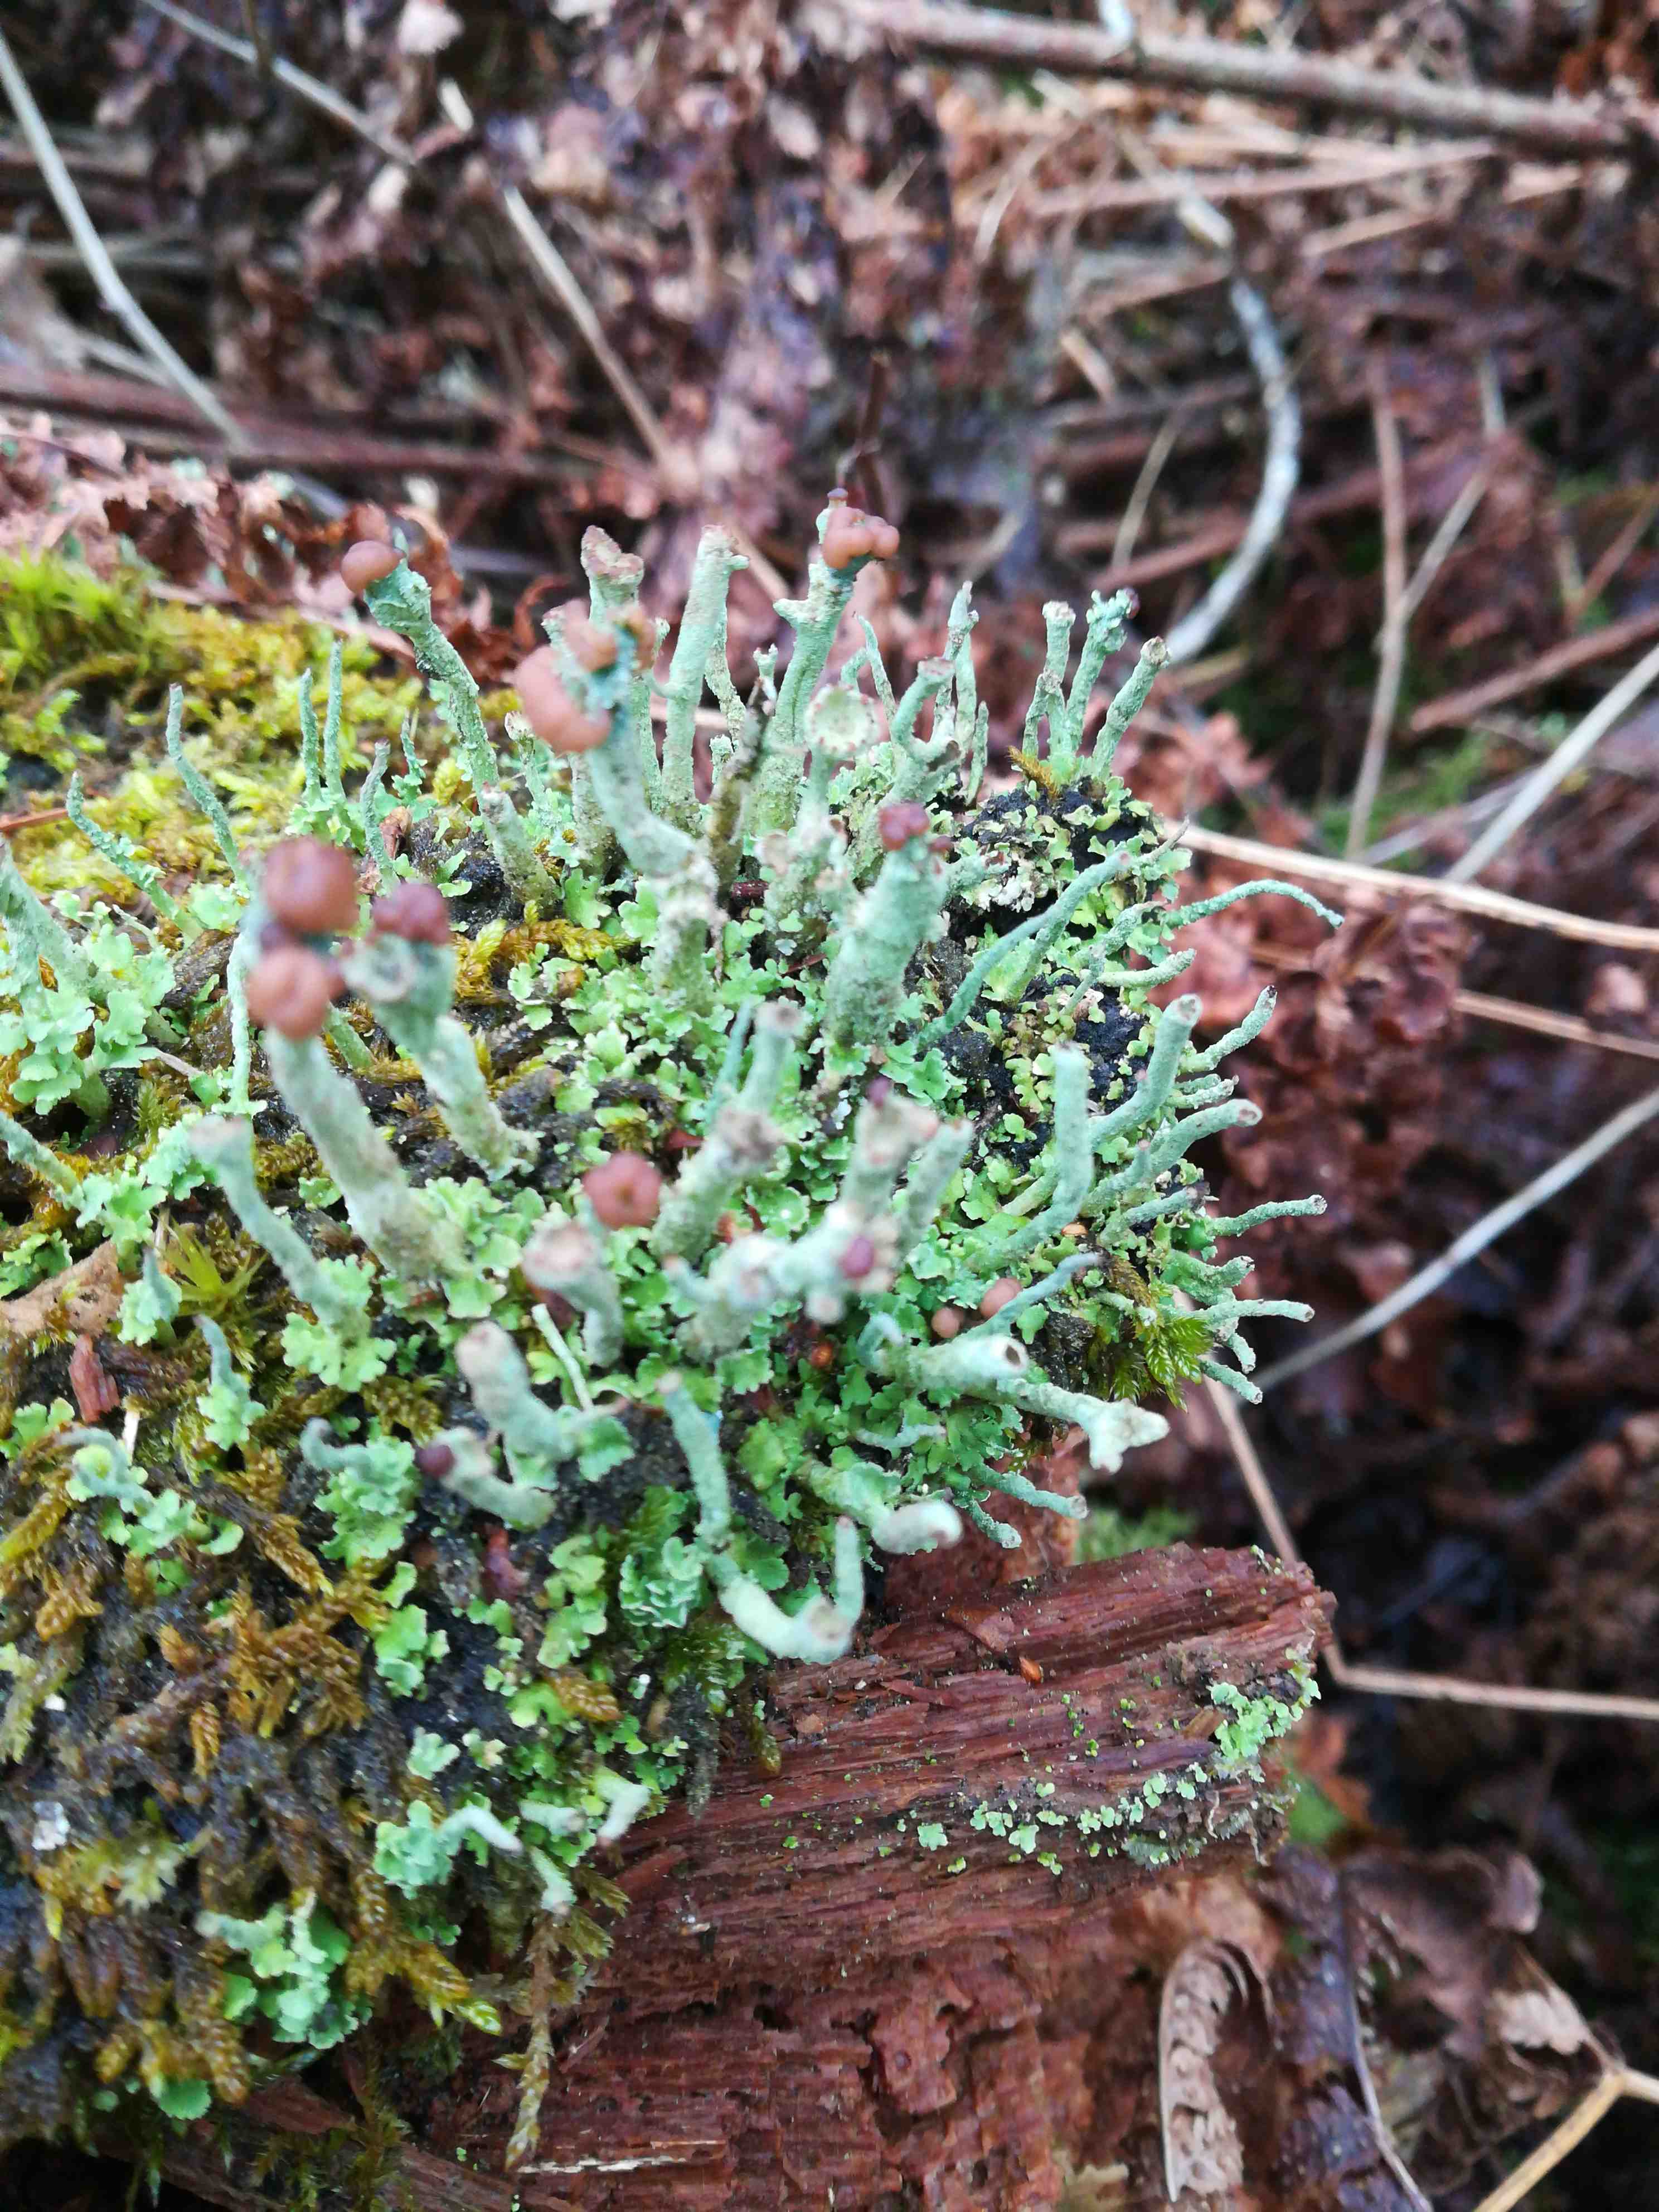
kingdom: Fungi
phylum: Ascomycota
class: Lecanoromycetes
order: Lecanorales
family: Cladoniaceae
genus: Cladonia
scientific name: Cladonia ramulosa
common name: kliddet bægerlav
